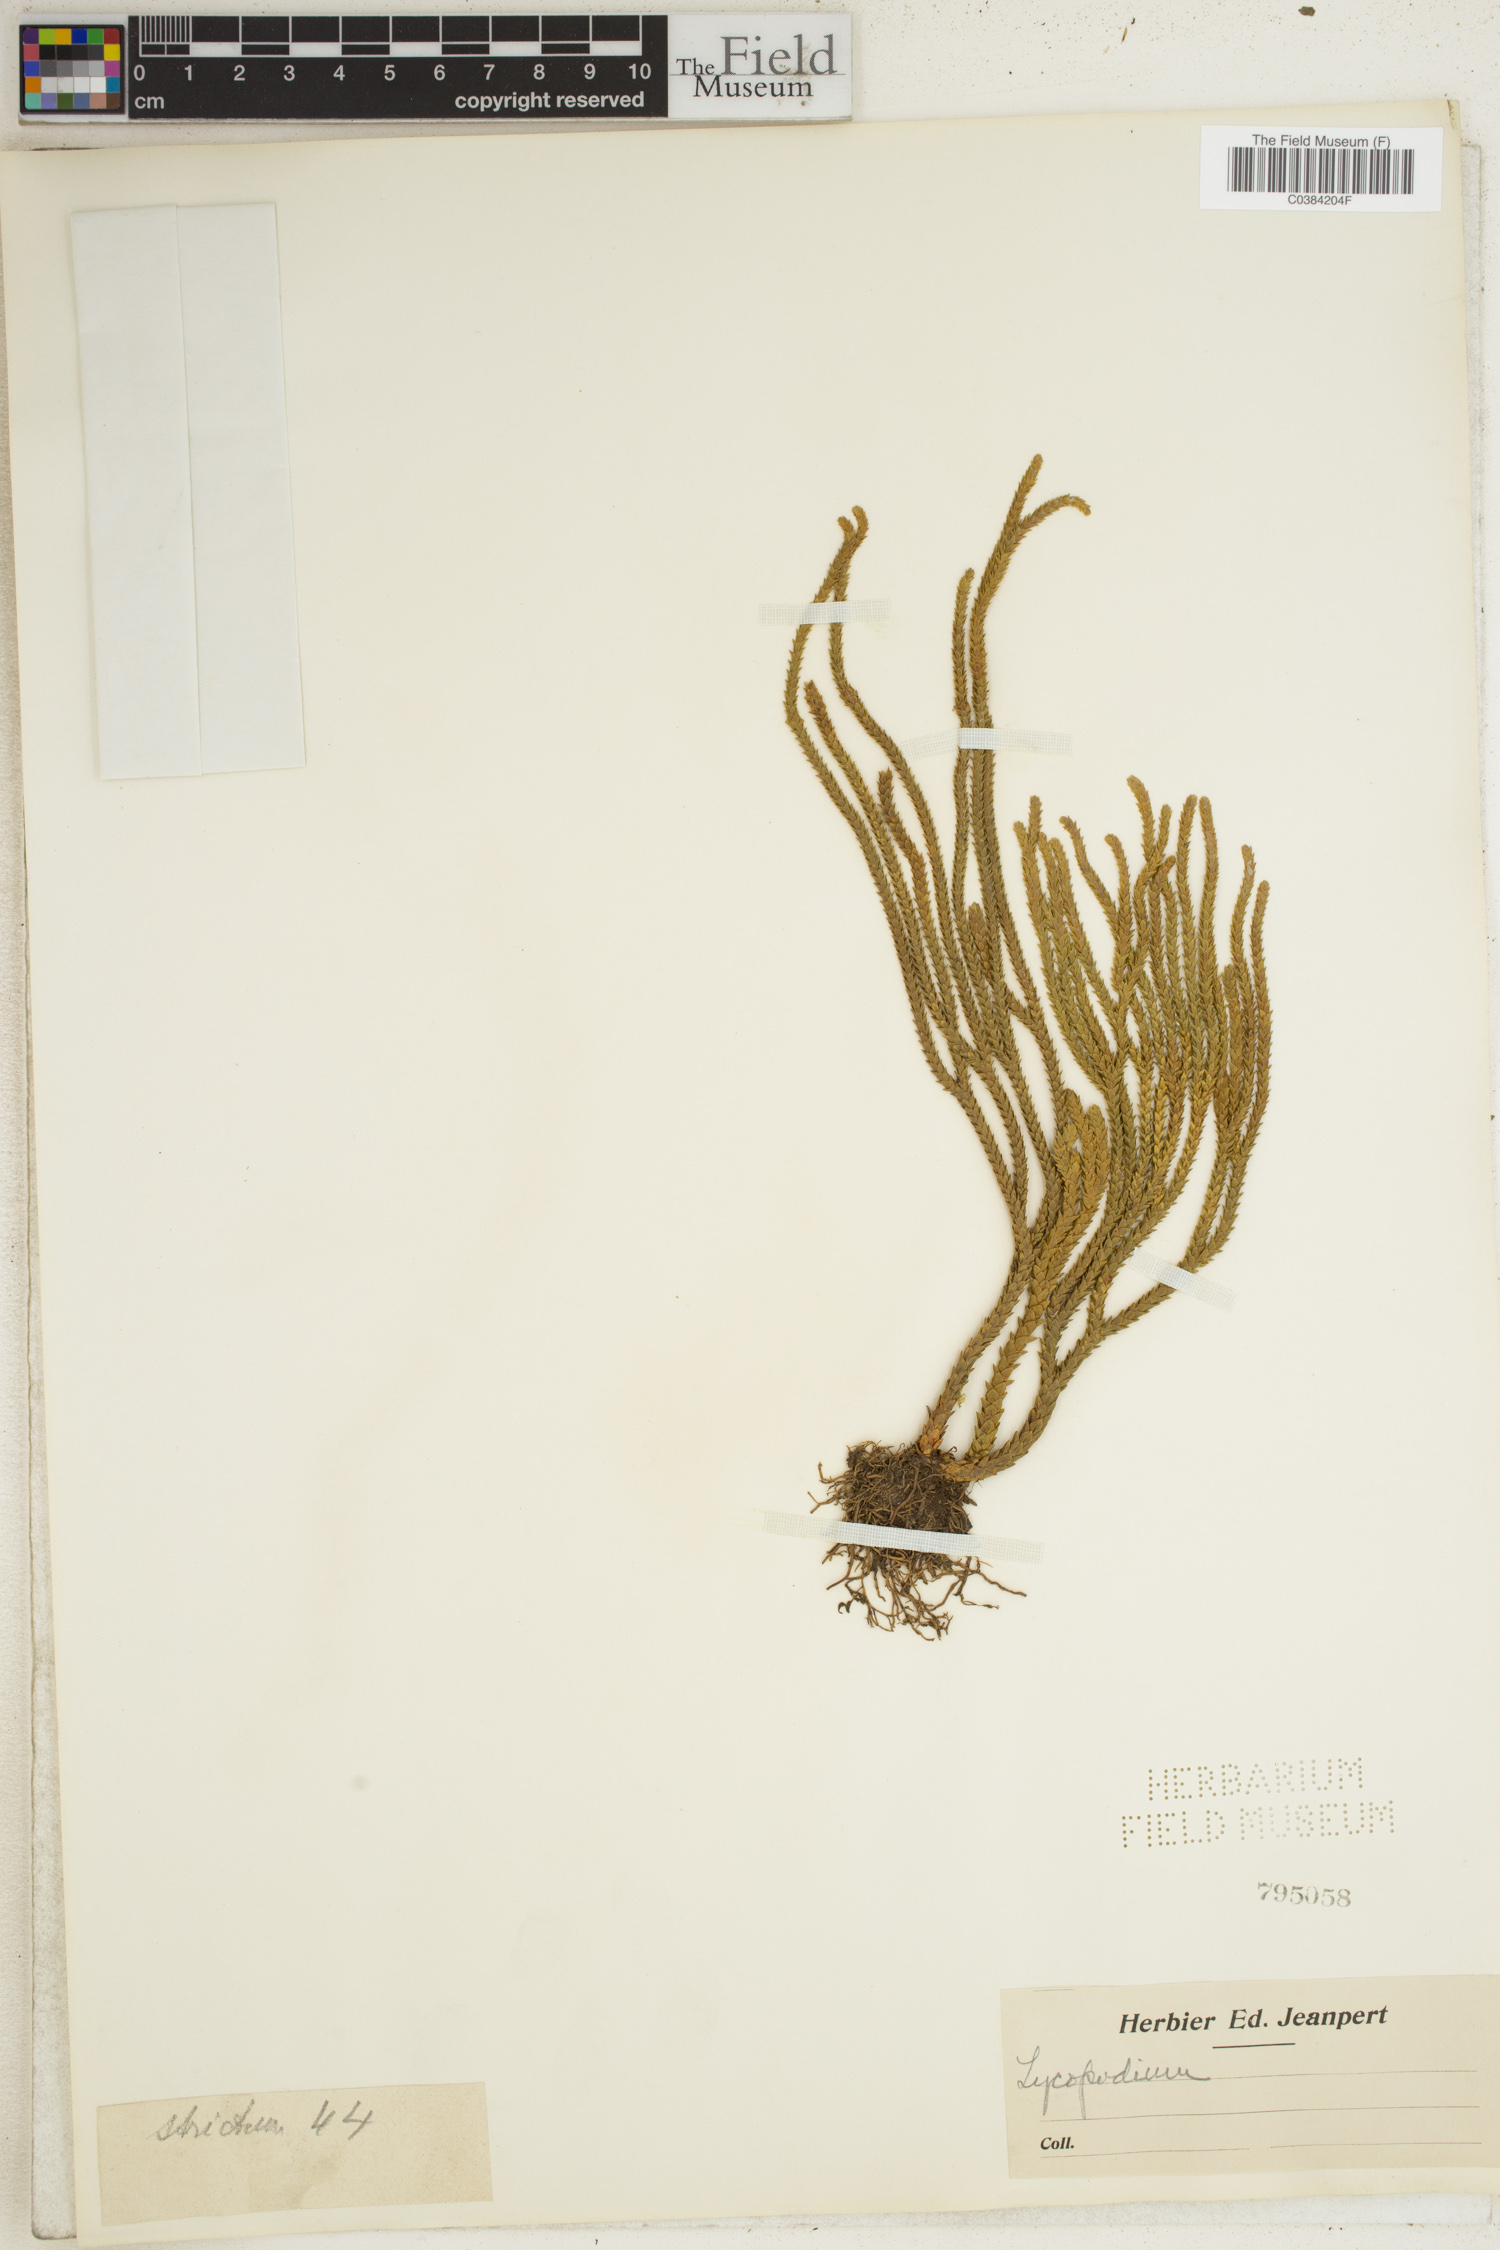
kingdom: Plantae
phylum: Tracheophyta
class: Lycopodiopsida
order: Lycopodiales
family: Lycopodiaceae
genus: Lycopodium
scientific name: Lycopodium
